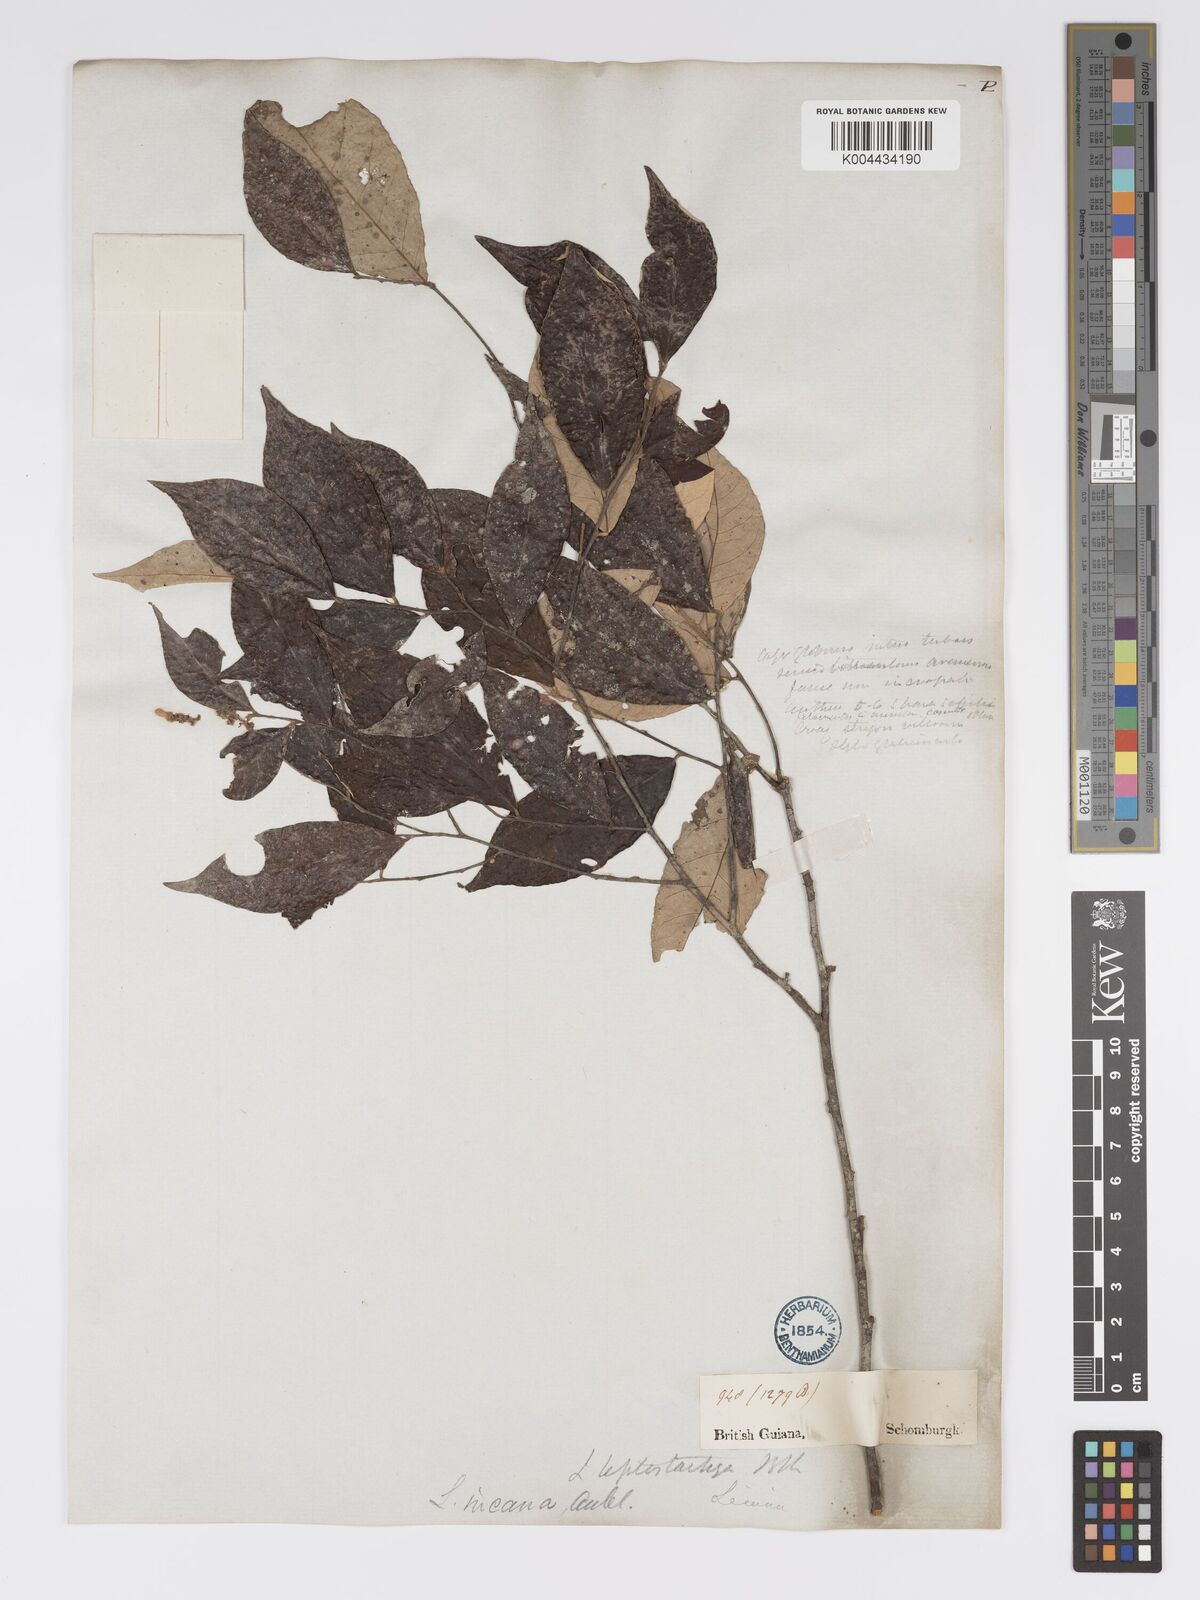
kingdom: Plantae
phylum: Tracheophyta
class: Magnoliopsida
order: Malpighiales
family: Chrysobalanaceae
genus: Licania
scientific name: Licania leptostachya
